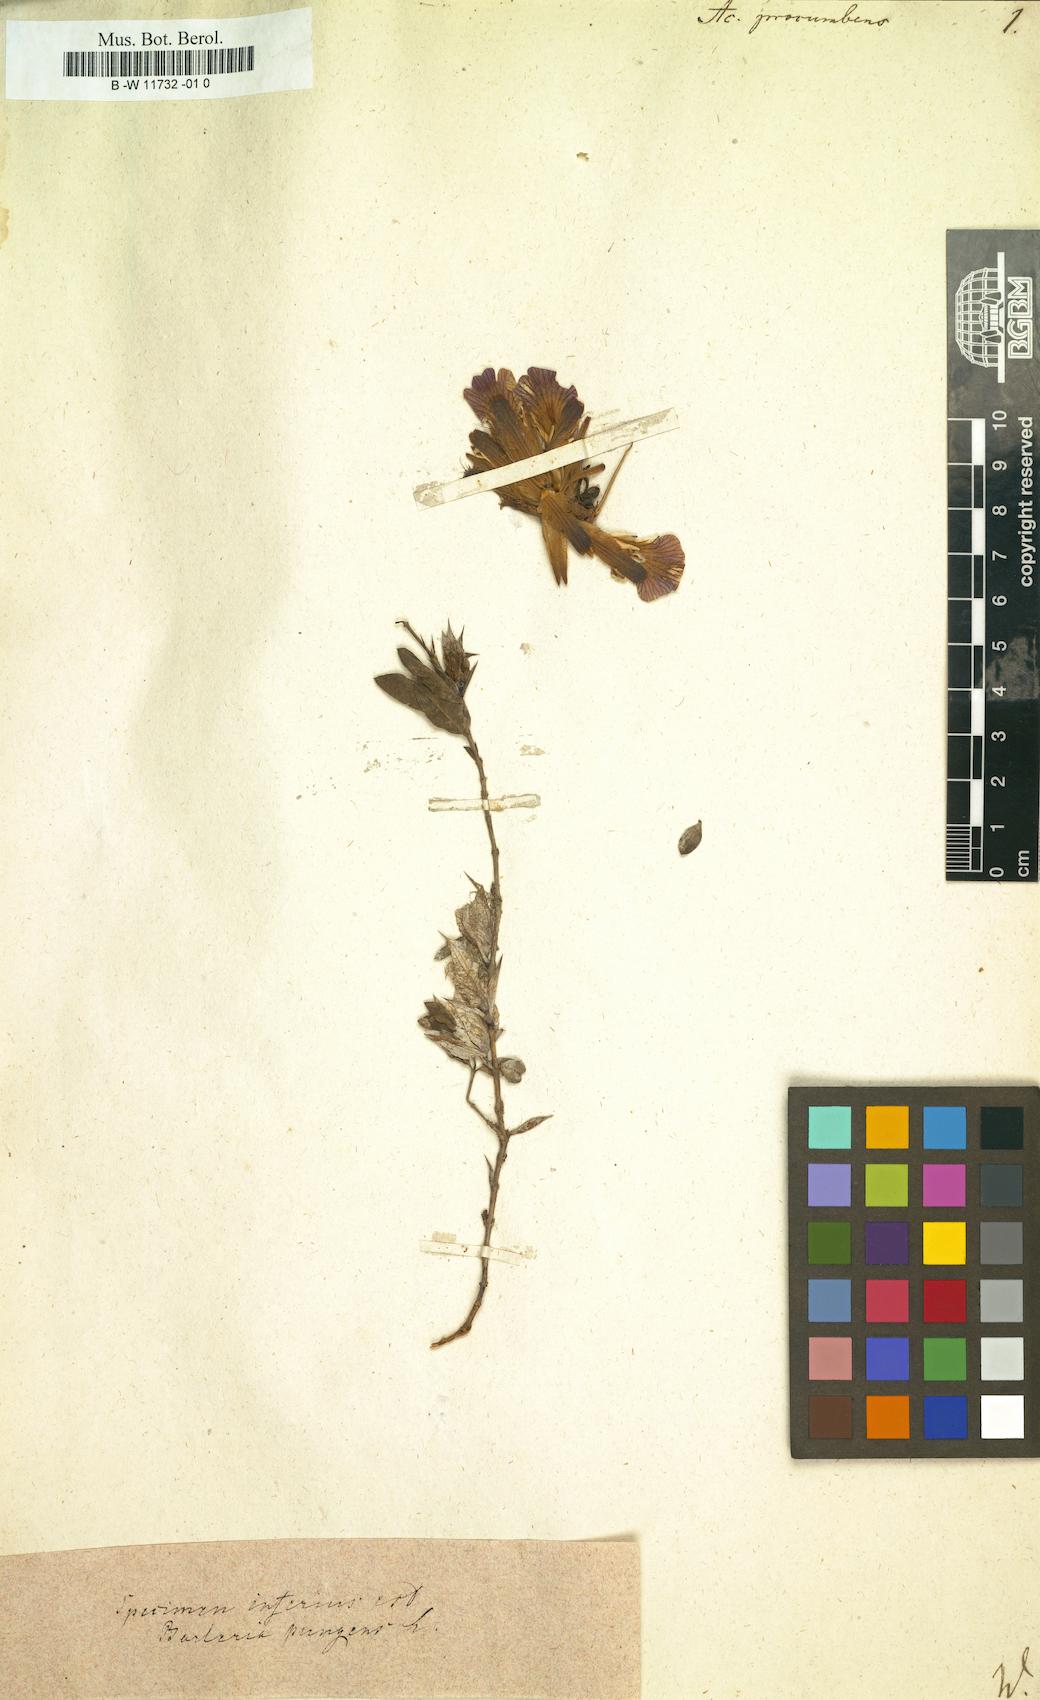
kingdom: Plantae
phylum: Tracheophyta
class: Magnoliopsida
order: Lamiales
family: Acanthaceae
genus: Blepharis
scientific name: Blepharis procumbens
